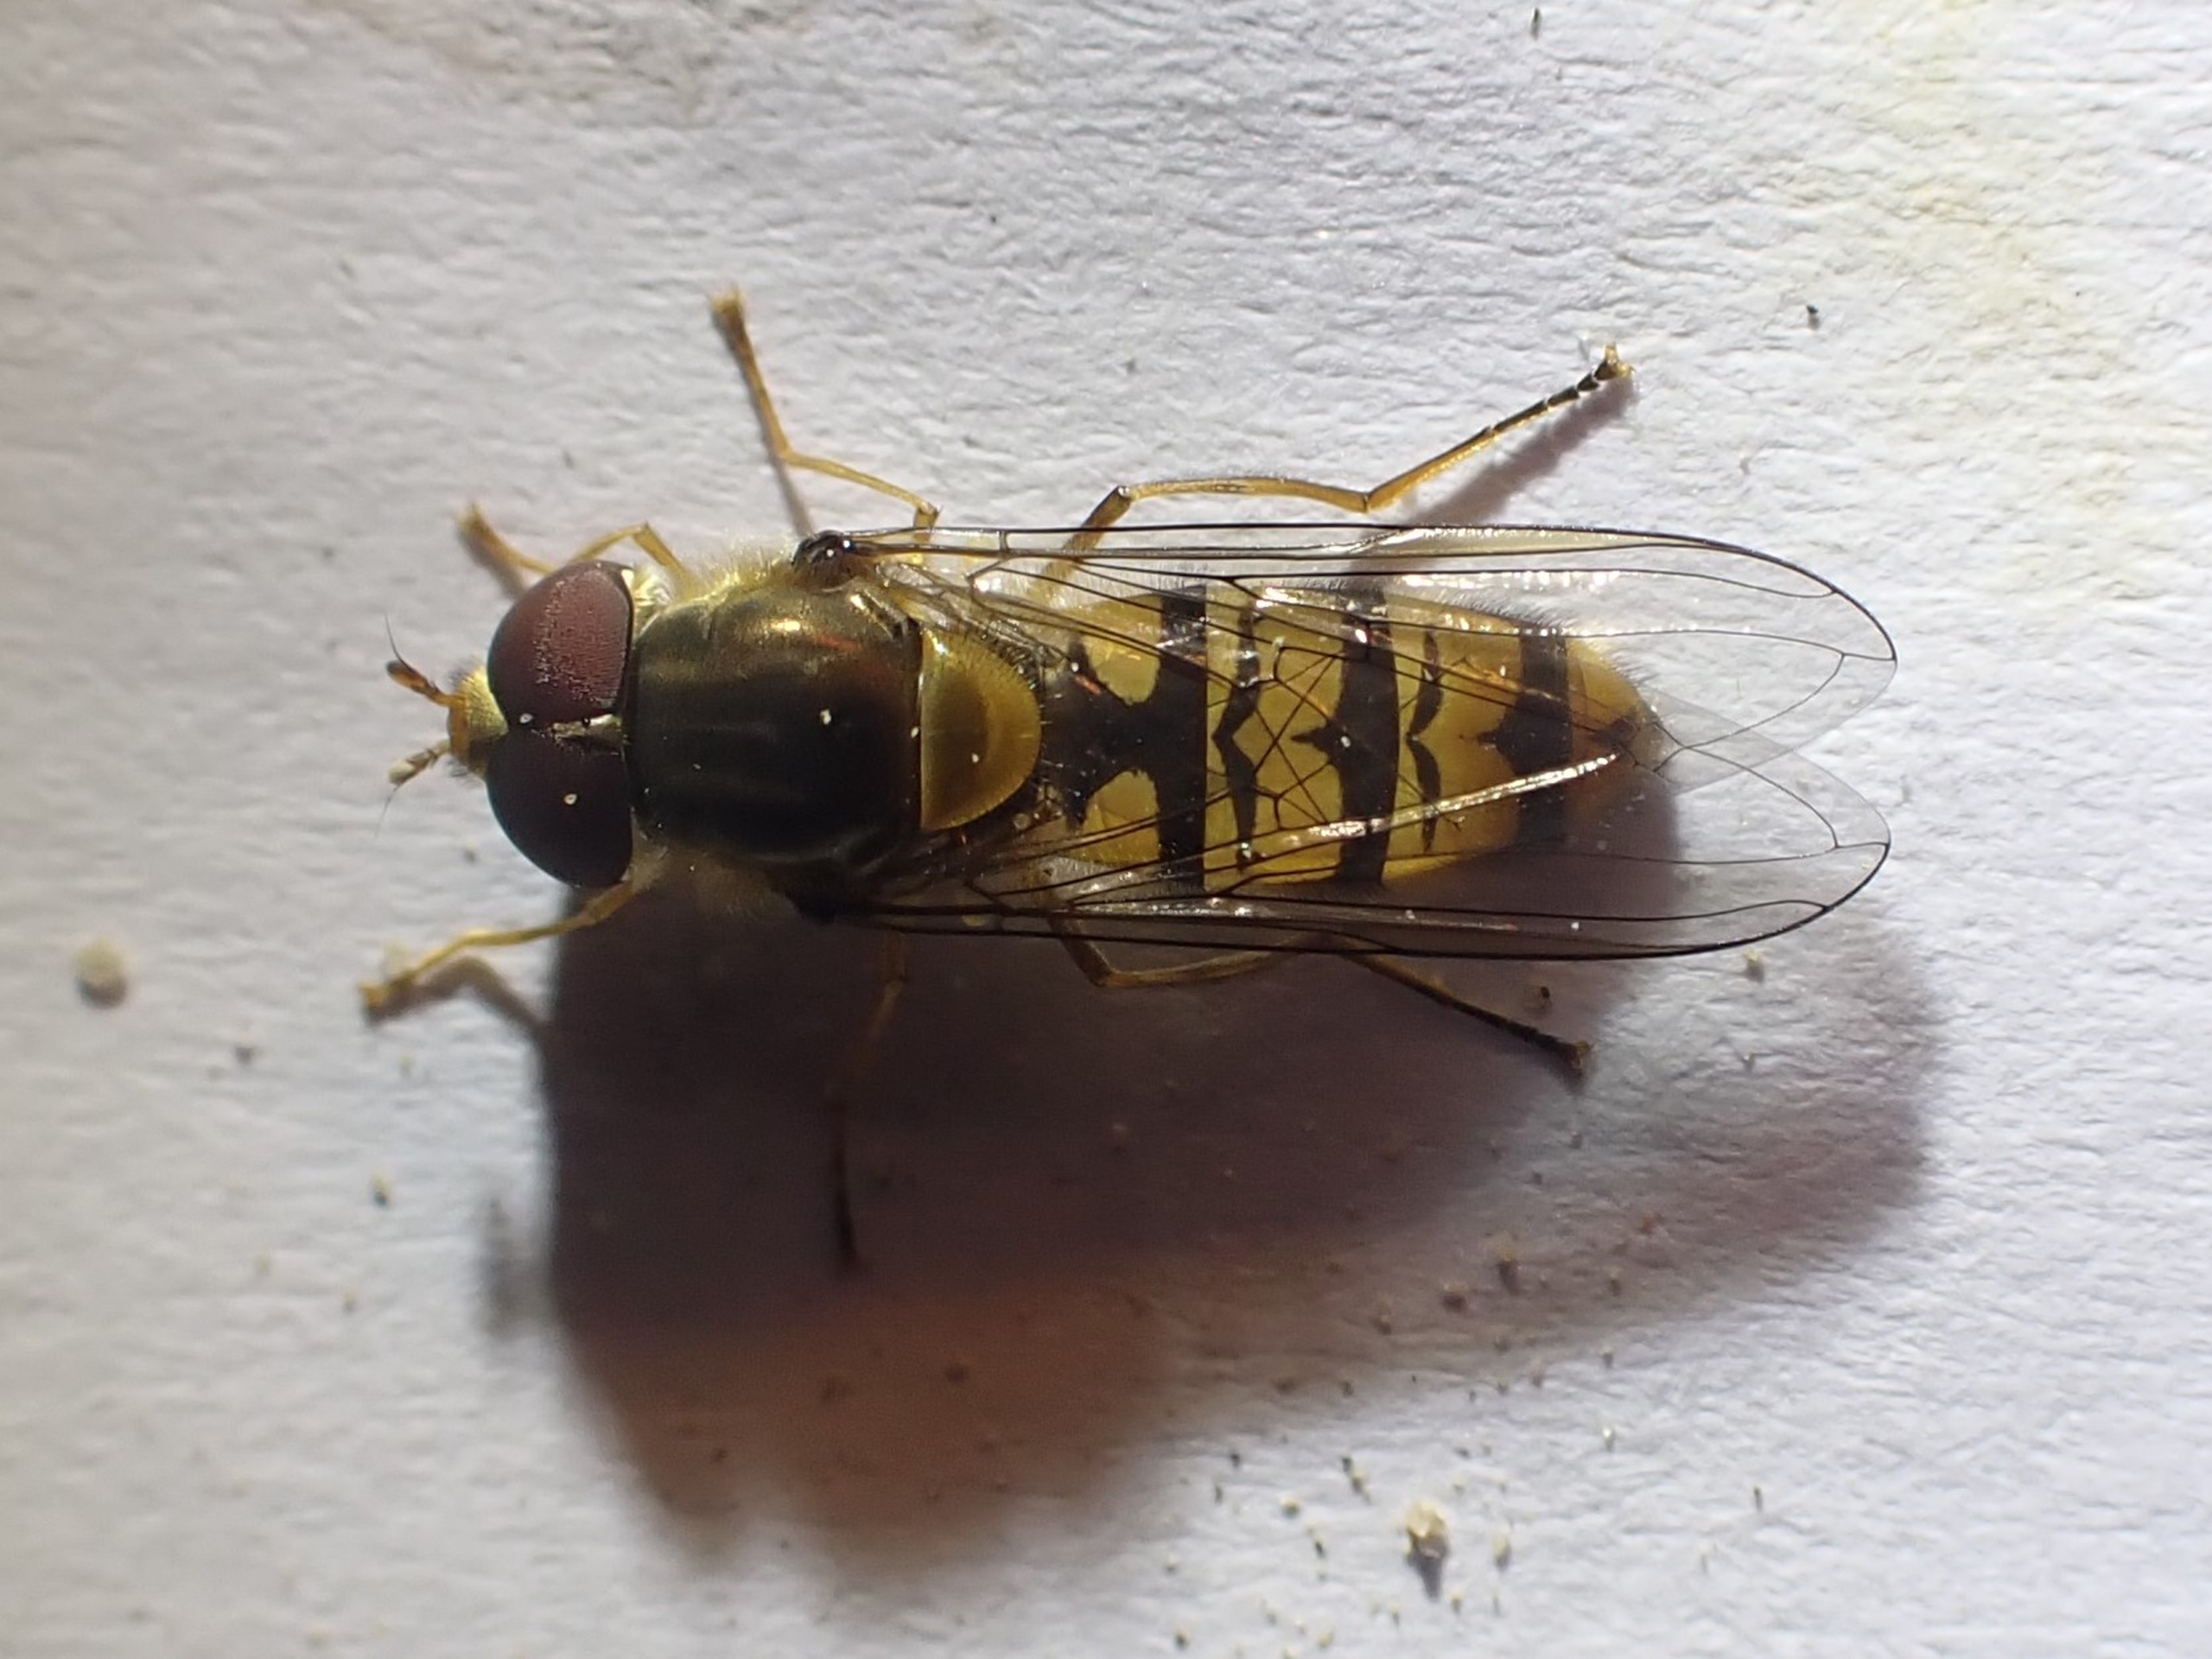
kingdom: Animalia
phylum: Arthropoda
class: Insecta
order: Diptera
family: Syrphidae
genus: Episyrphus
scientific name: Episyrphus balteatus
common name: Dobbeltbåndet svirreflue
